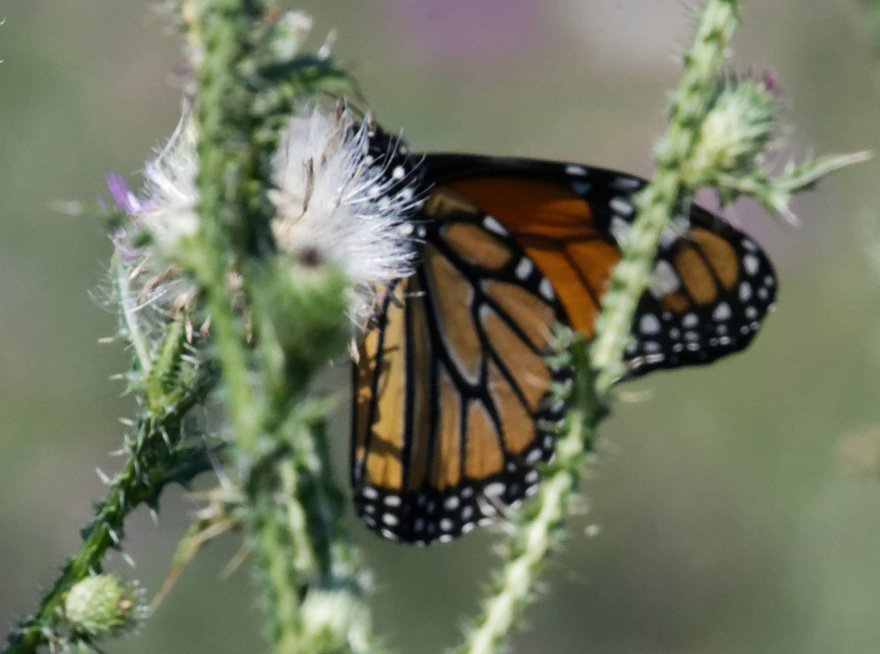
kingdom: Animalia
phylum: Arthropoda
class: Insecta
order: Lepidoptera
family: Nymphalidae
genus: Danaus
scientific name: Danaus plexippus
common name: Monarch
